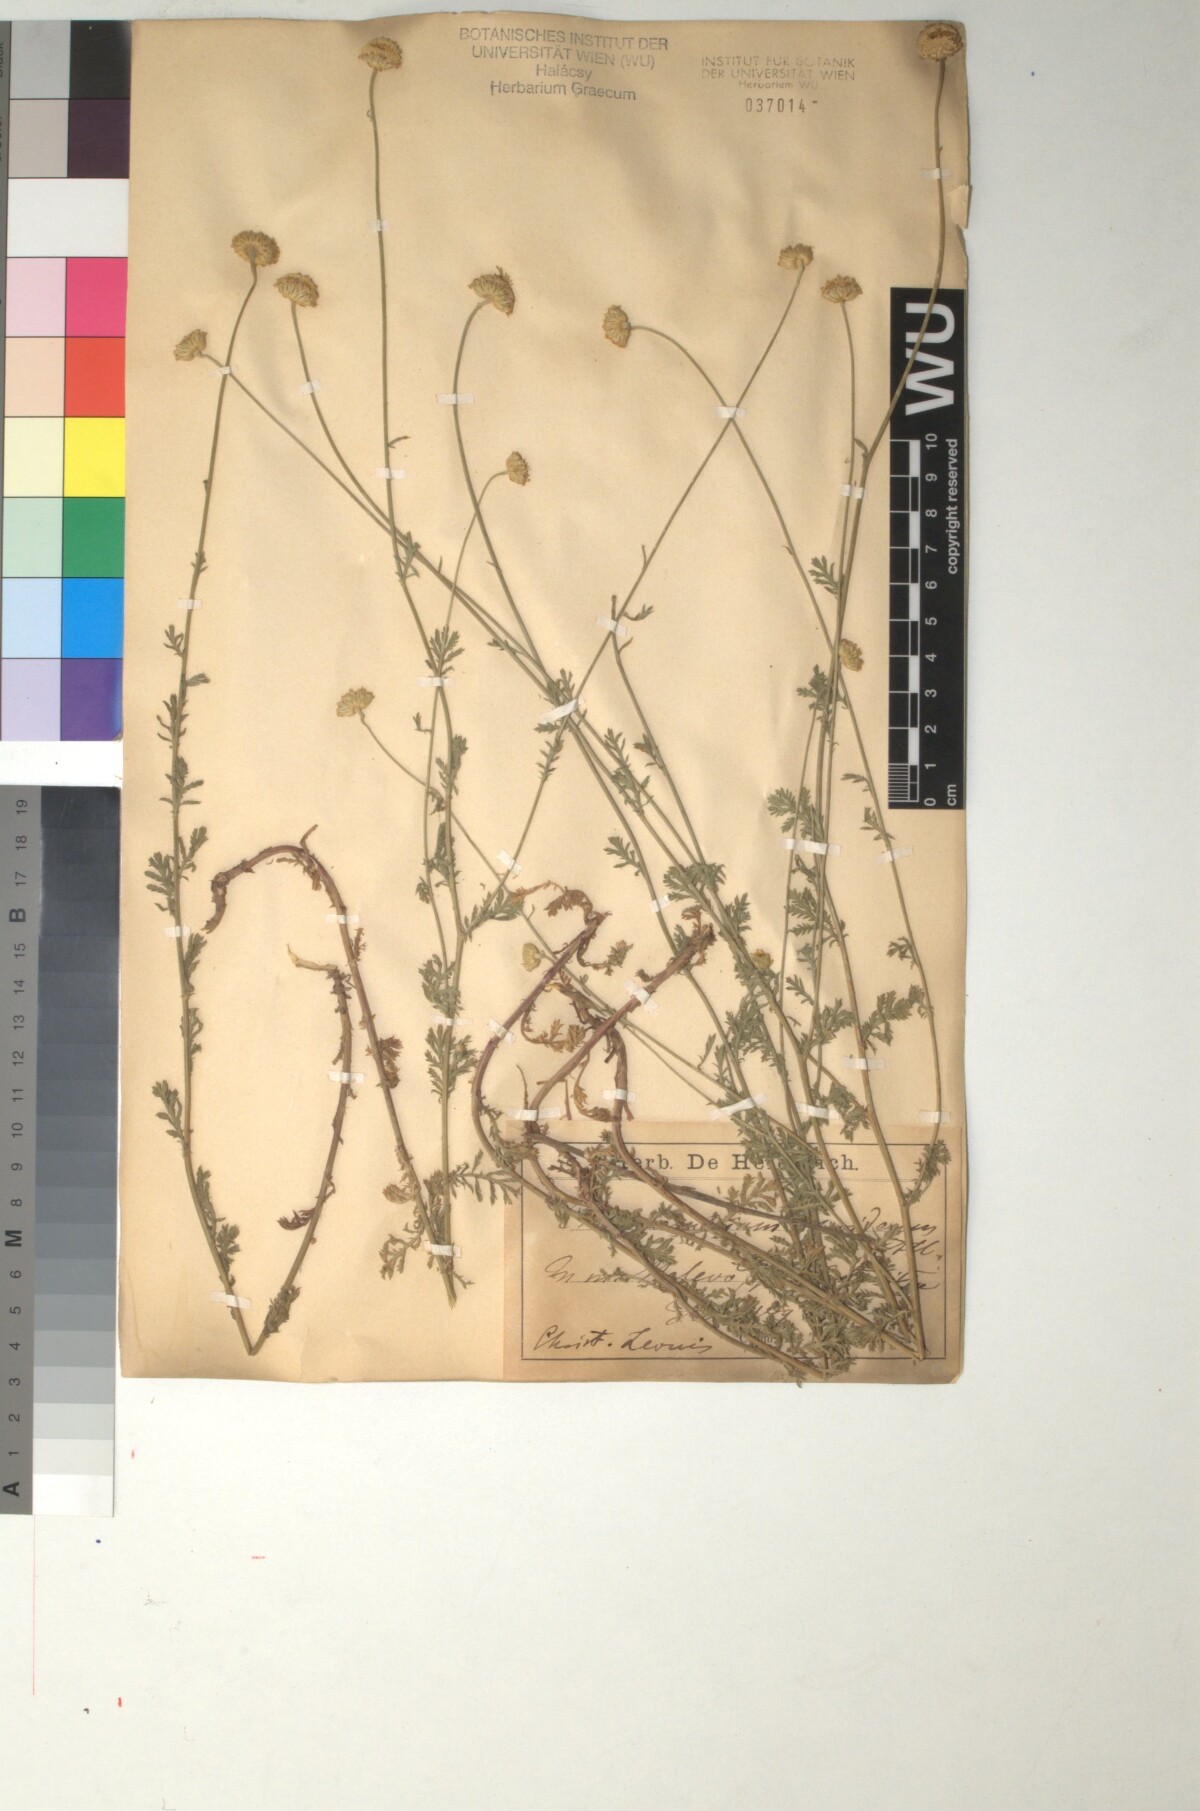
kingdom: Plantae
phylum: Tracheophyta
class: Magnoliopsida
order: Asterales
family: Asteraceae
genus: Cota
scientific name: Cota tinctoria
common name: Golden chamomile
